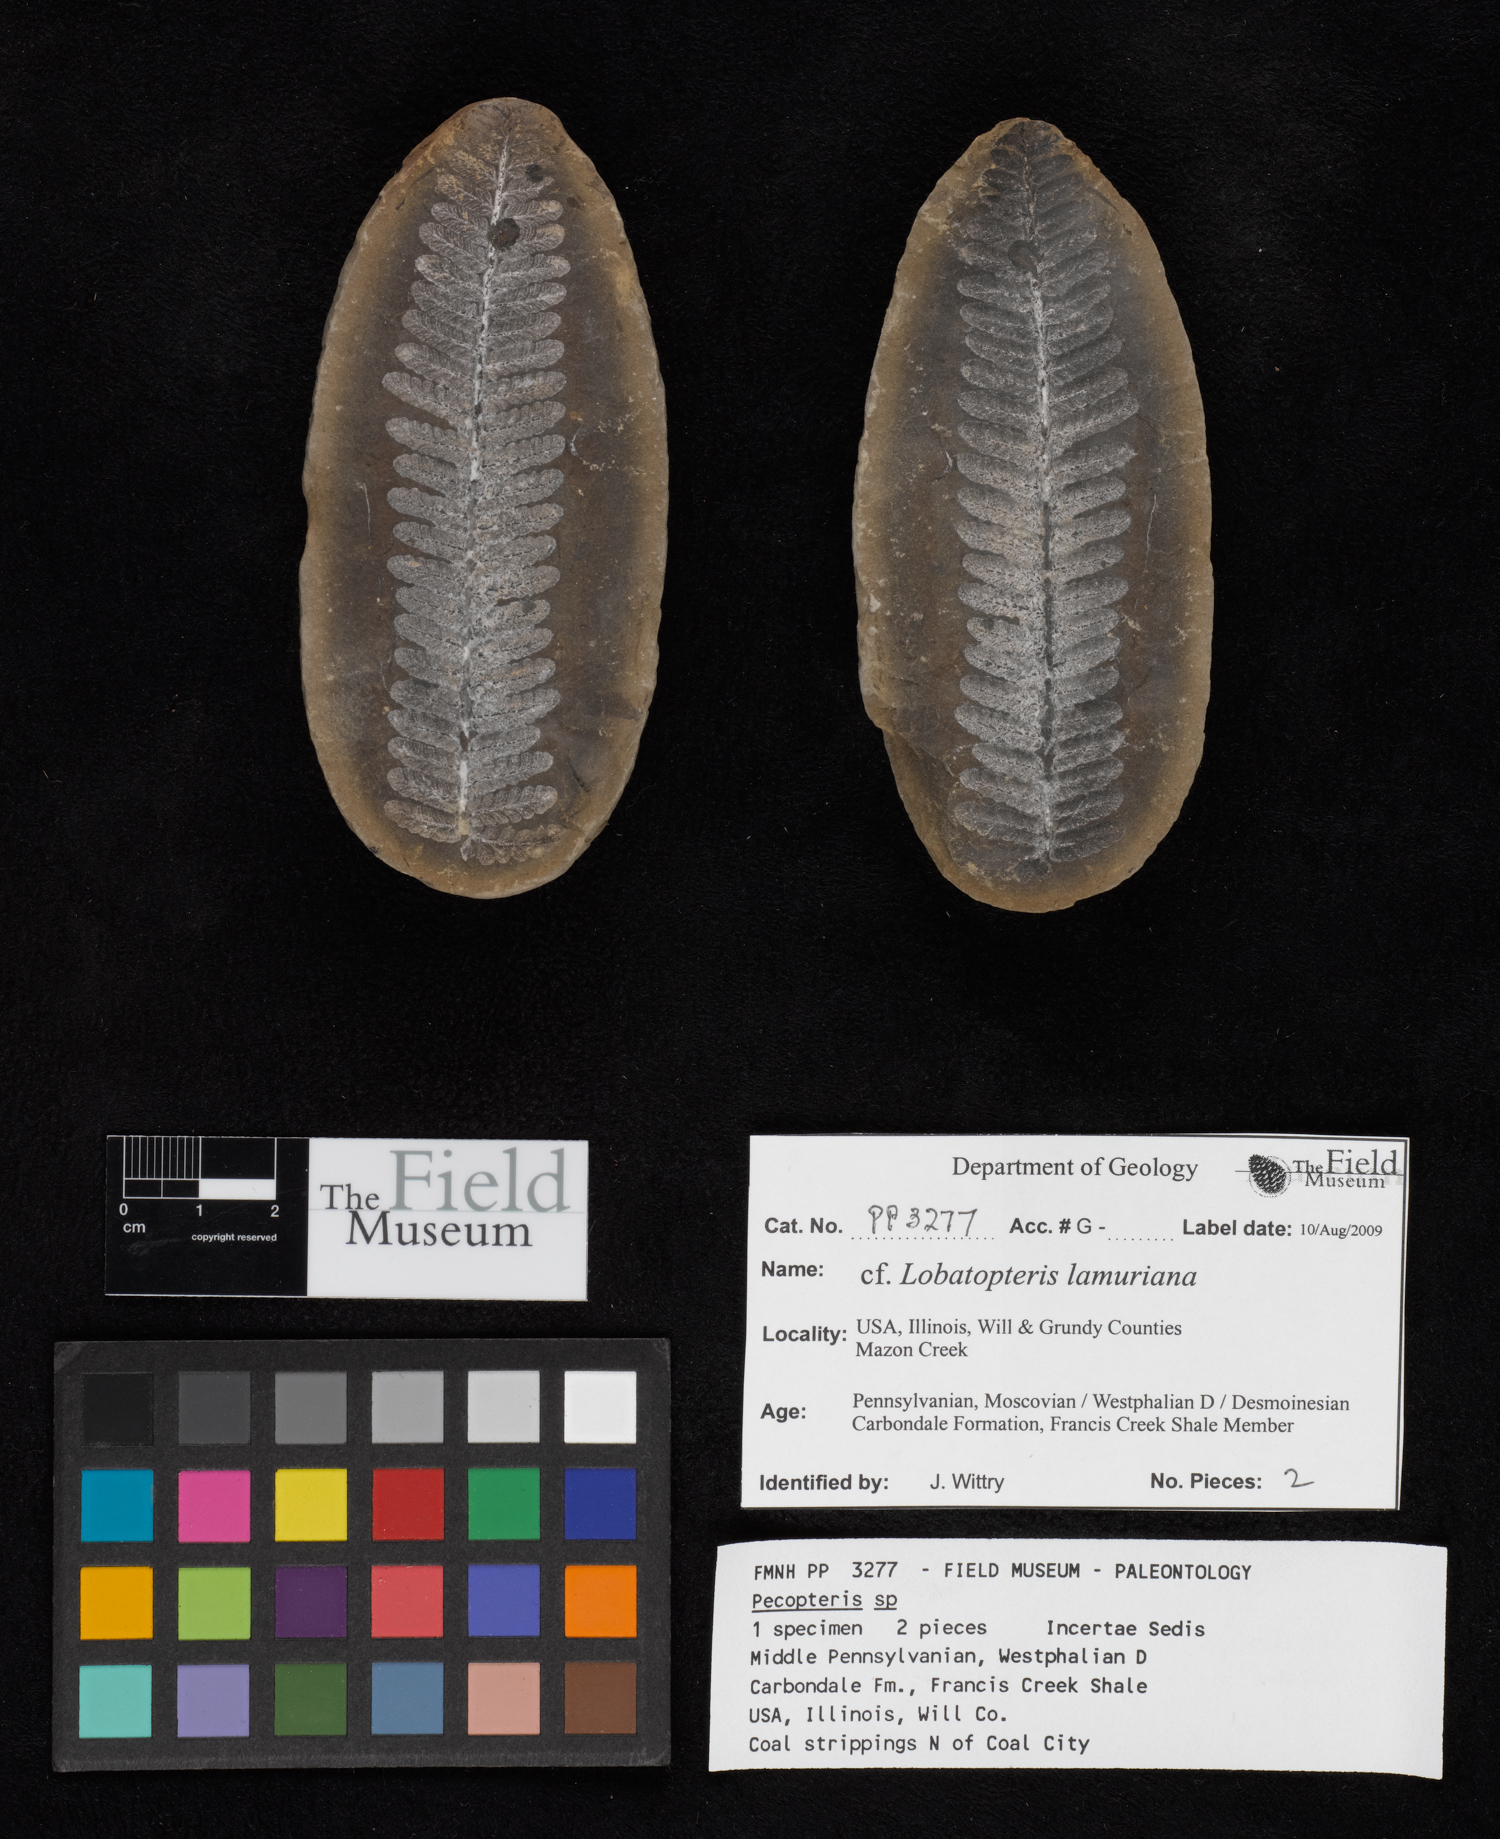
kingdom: Plantae
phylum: Tracheophyta
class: Polypodiopsida
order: Marattiales
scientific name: Marattiales
